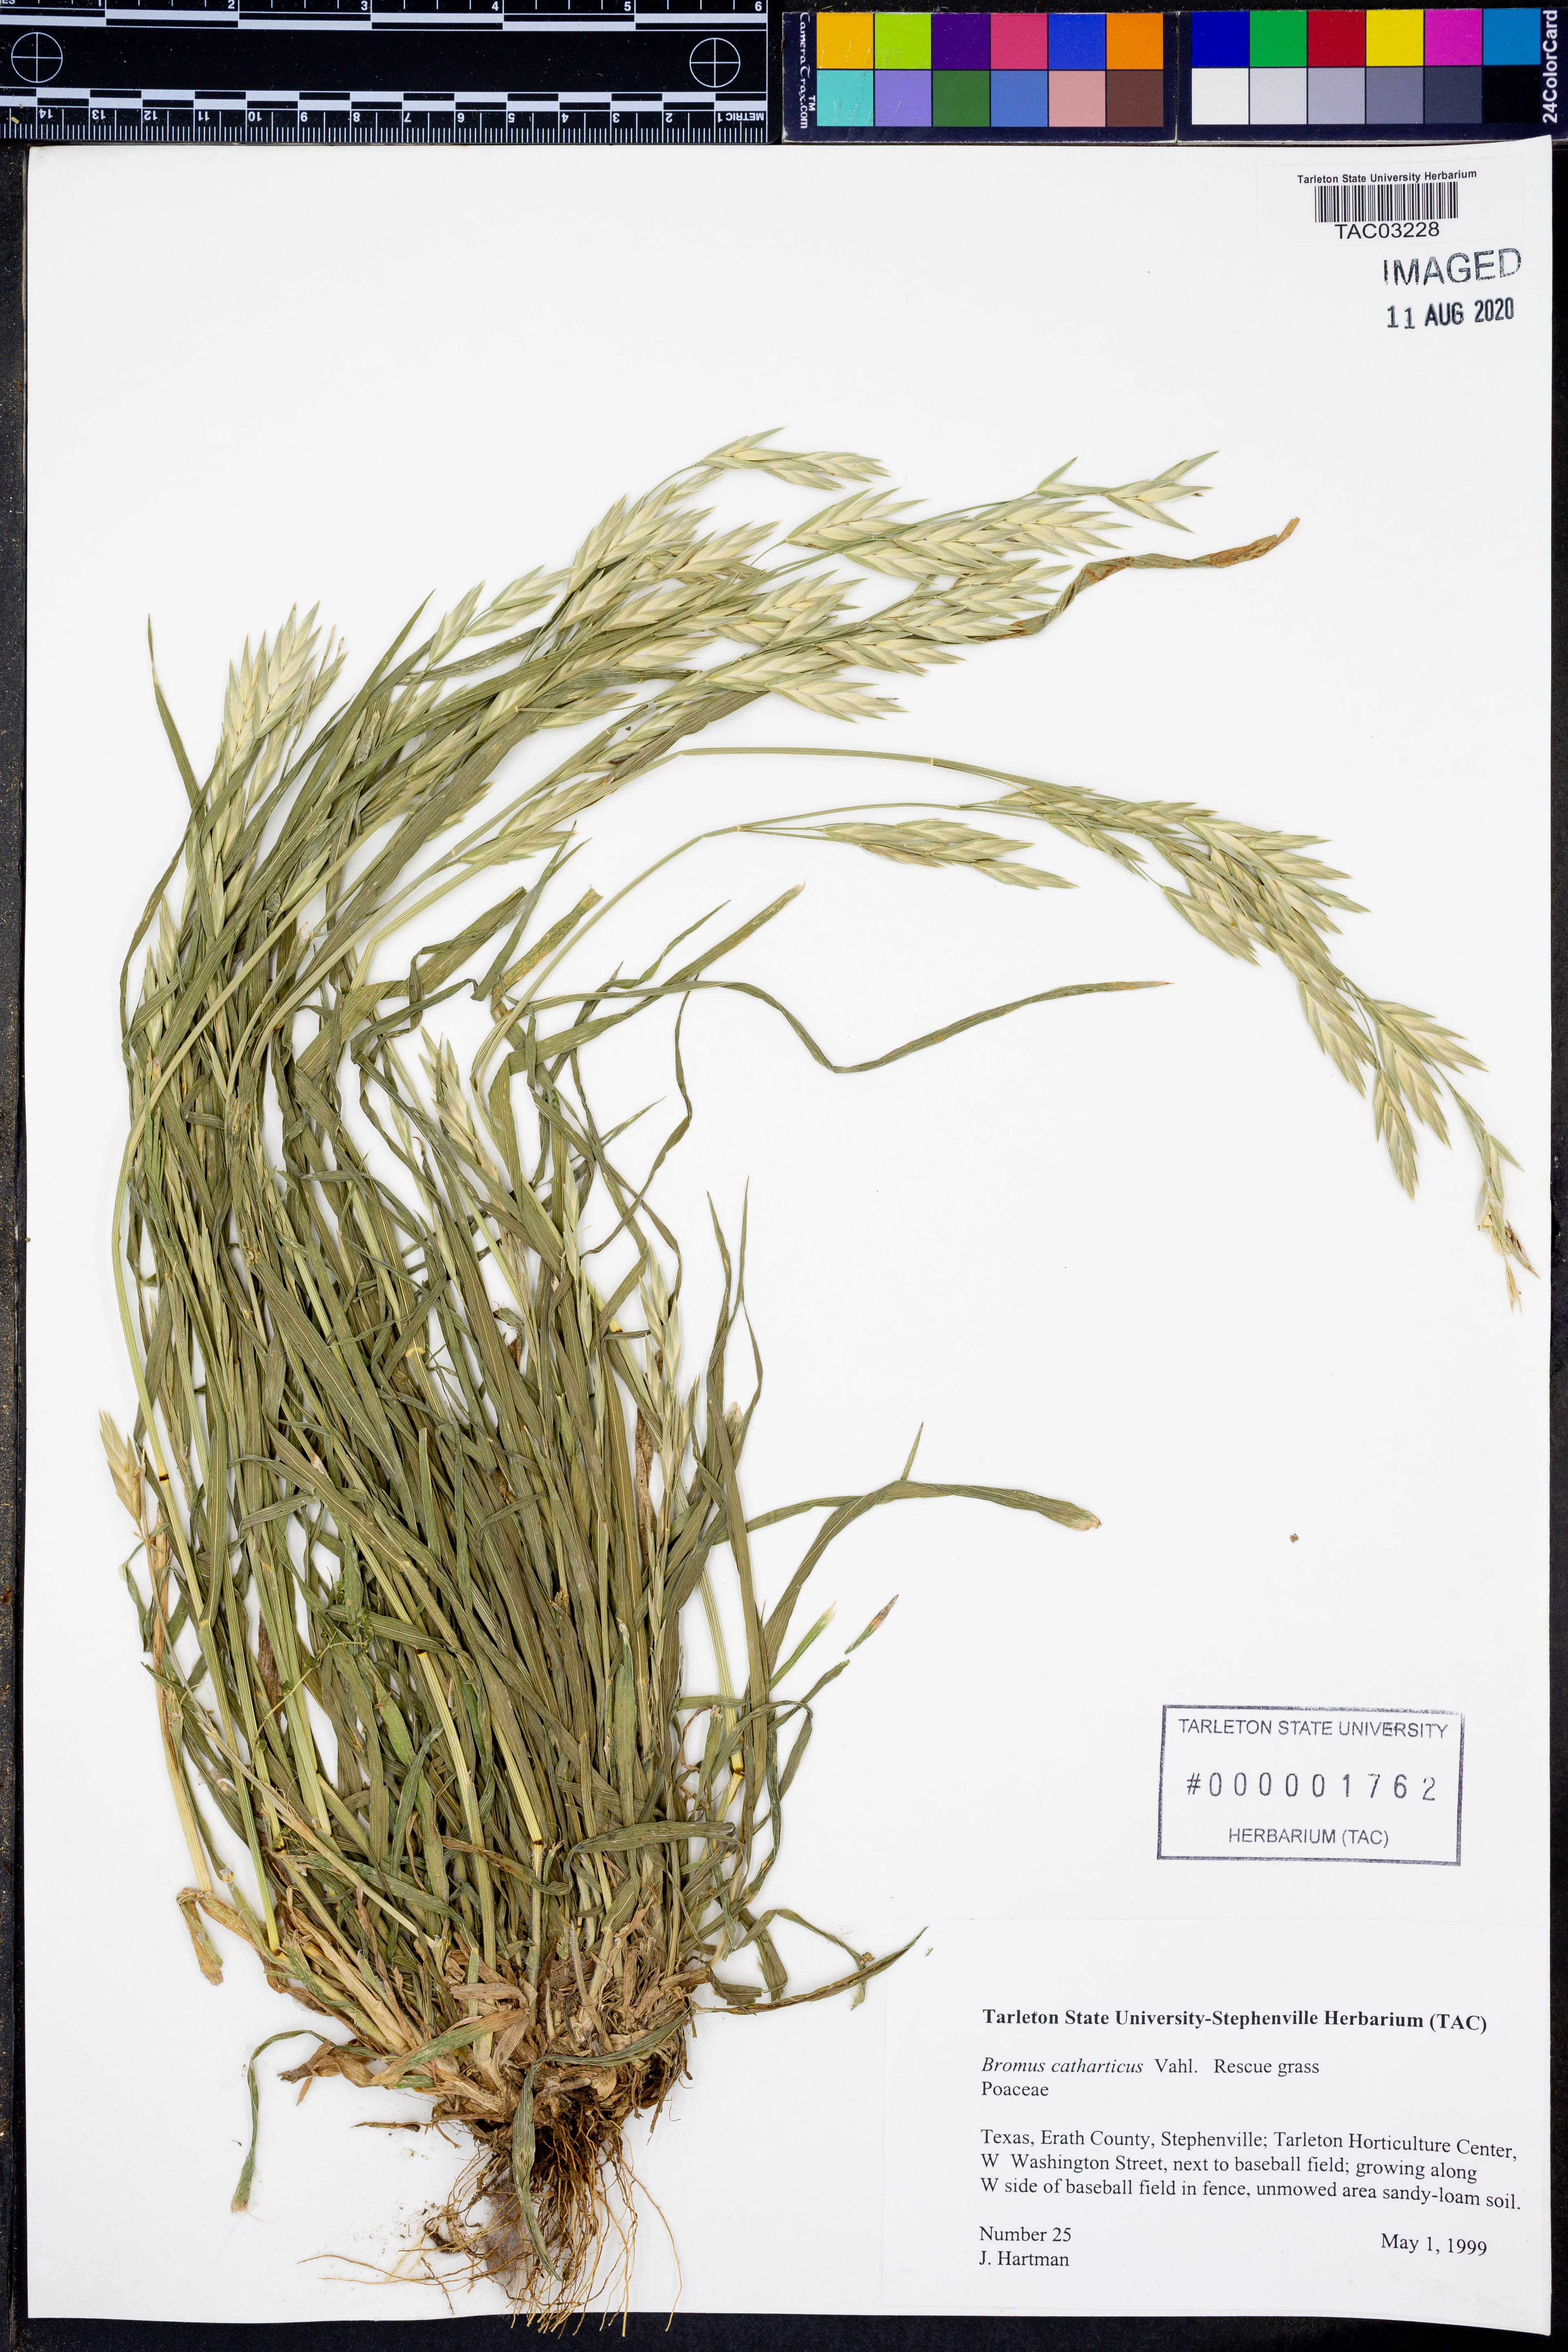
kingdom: Plantae
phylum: Tracheophyta
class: Liliopsida
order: Poales
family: Poaceae
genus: Bromus
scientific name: Bromus catharticus
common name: Rescuegrass
